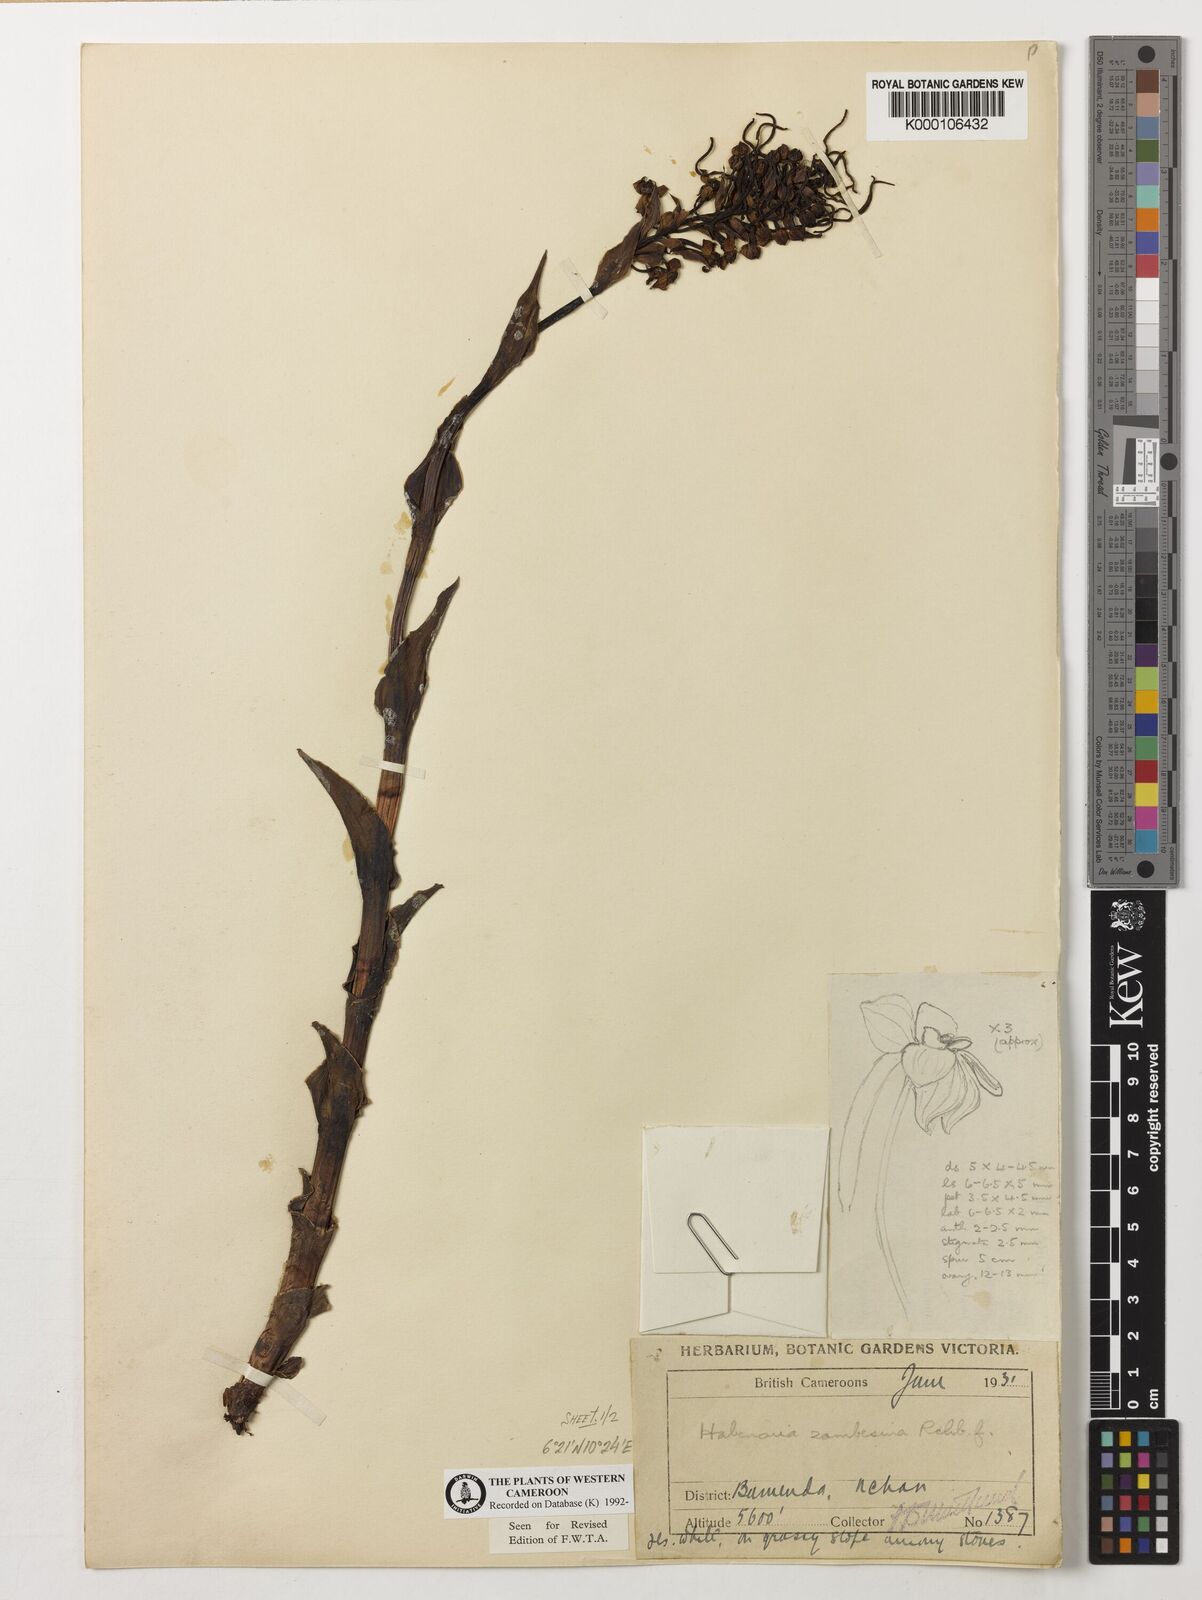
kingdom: Plantae
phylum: Tracheophyta
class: Liliopsida
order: Asparagales
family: Orchidaceae
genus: Habenaria
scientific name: Habenaria zambesina
